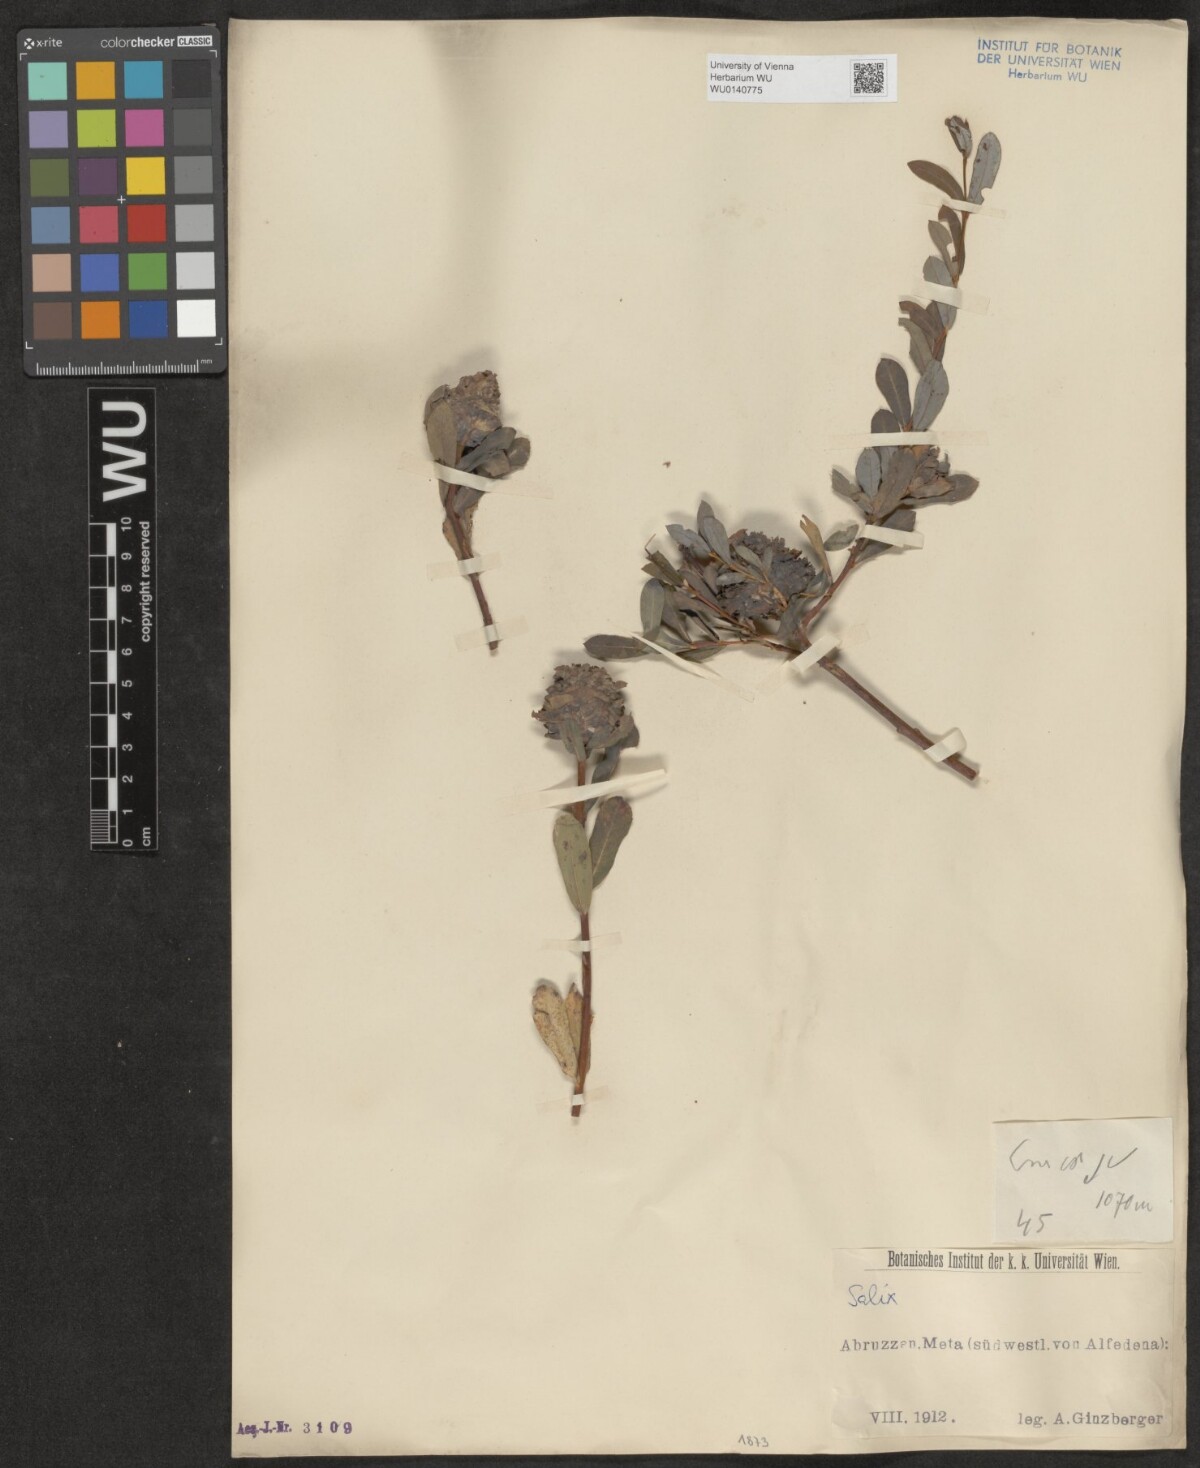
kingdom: Plantae
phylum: Tracheophyta
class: Magnoliopsida
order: Malpighiales
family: Salicaceae
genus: Salix
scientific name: Salix
